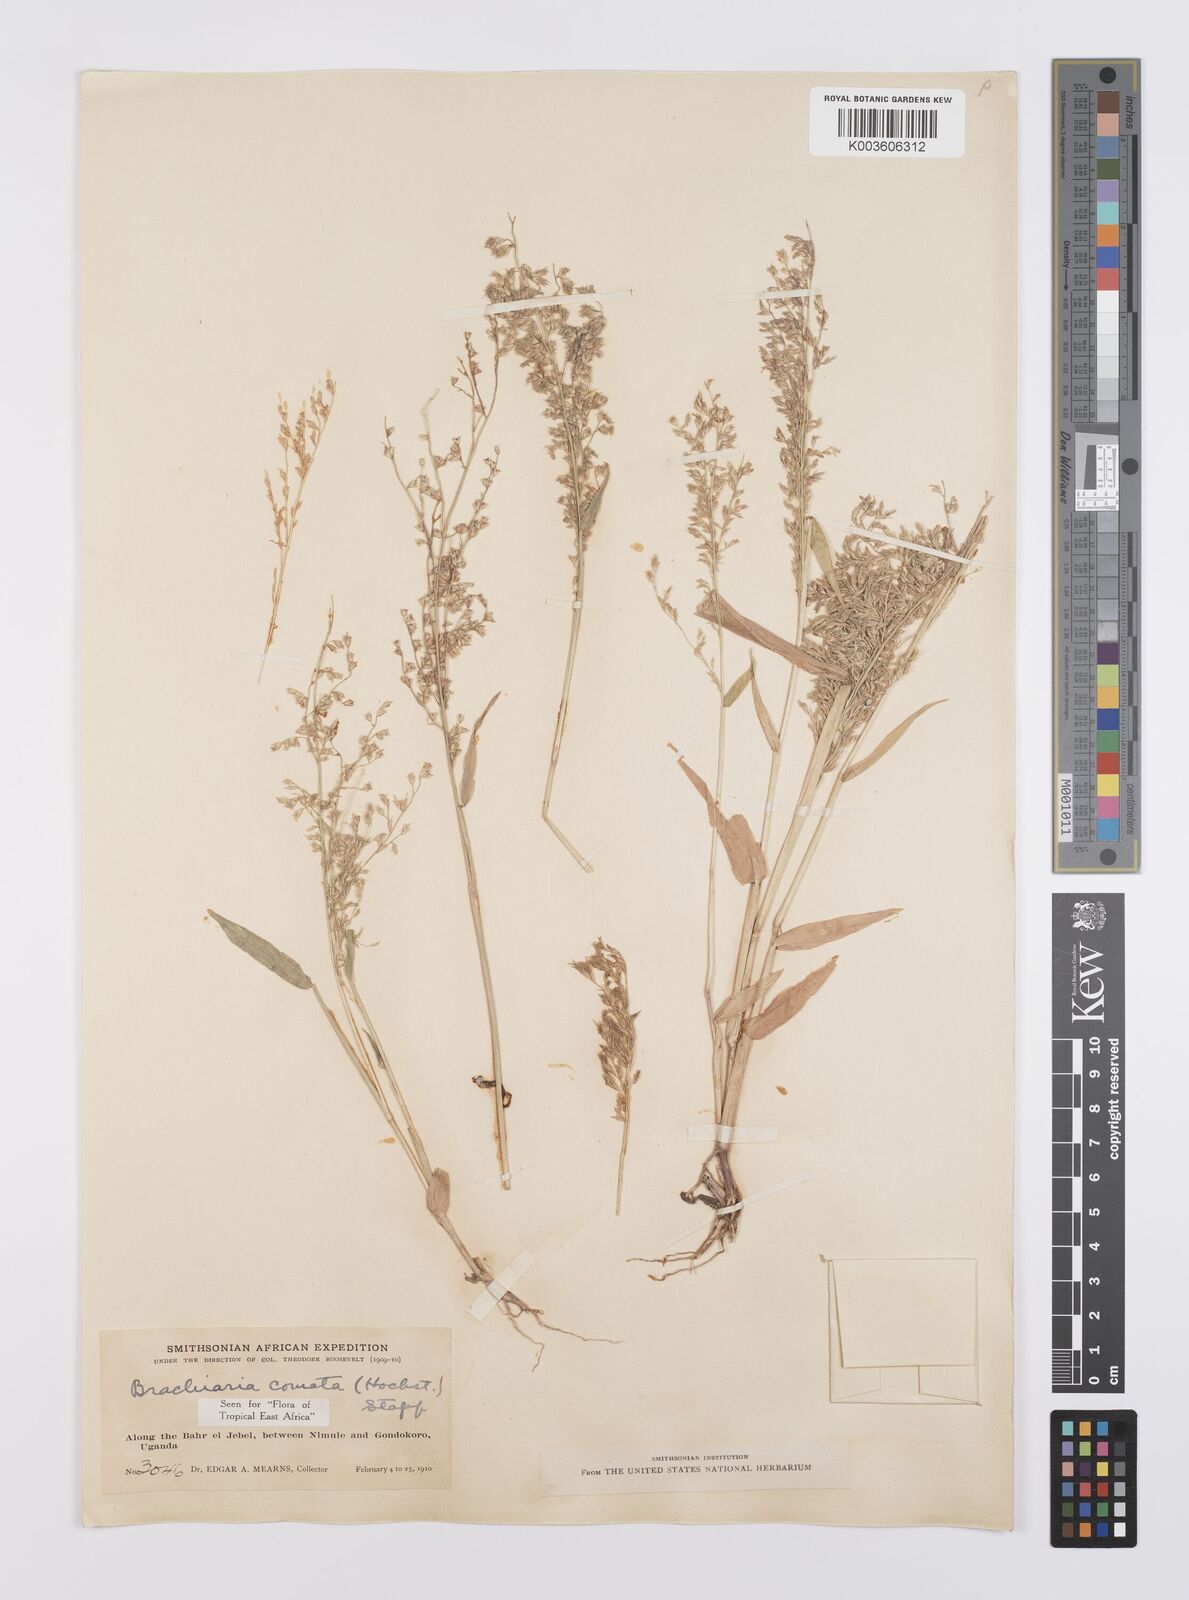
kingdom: Plantae
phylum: Tracheophyta
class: Liliopsida
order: Poales
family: Poaceae
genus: Urochloa
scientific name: Urochloa comata
